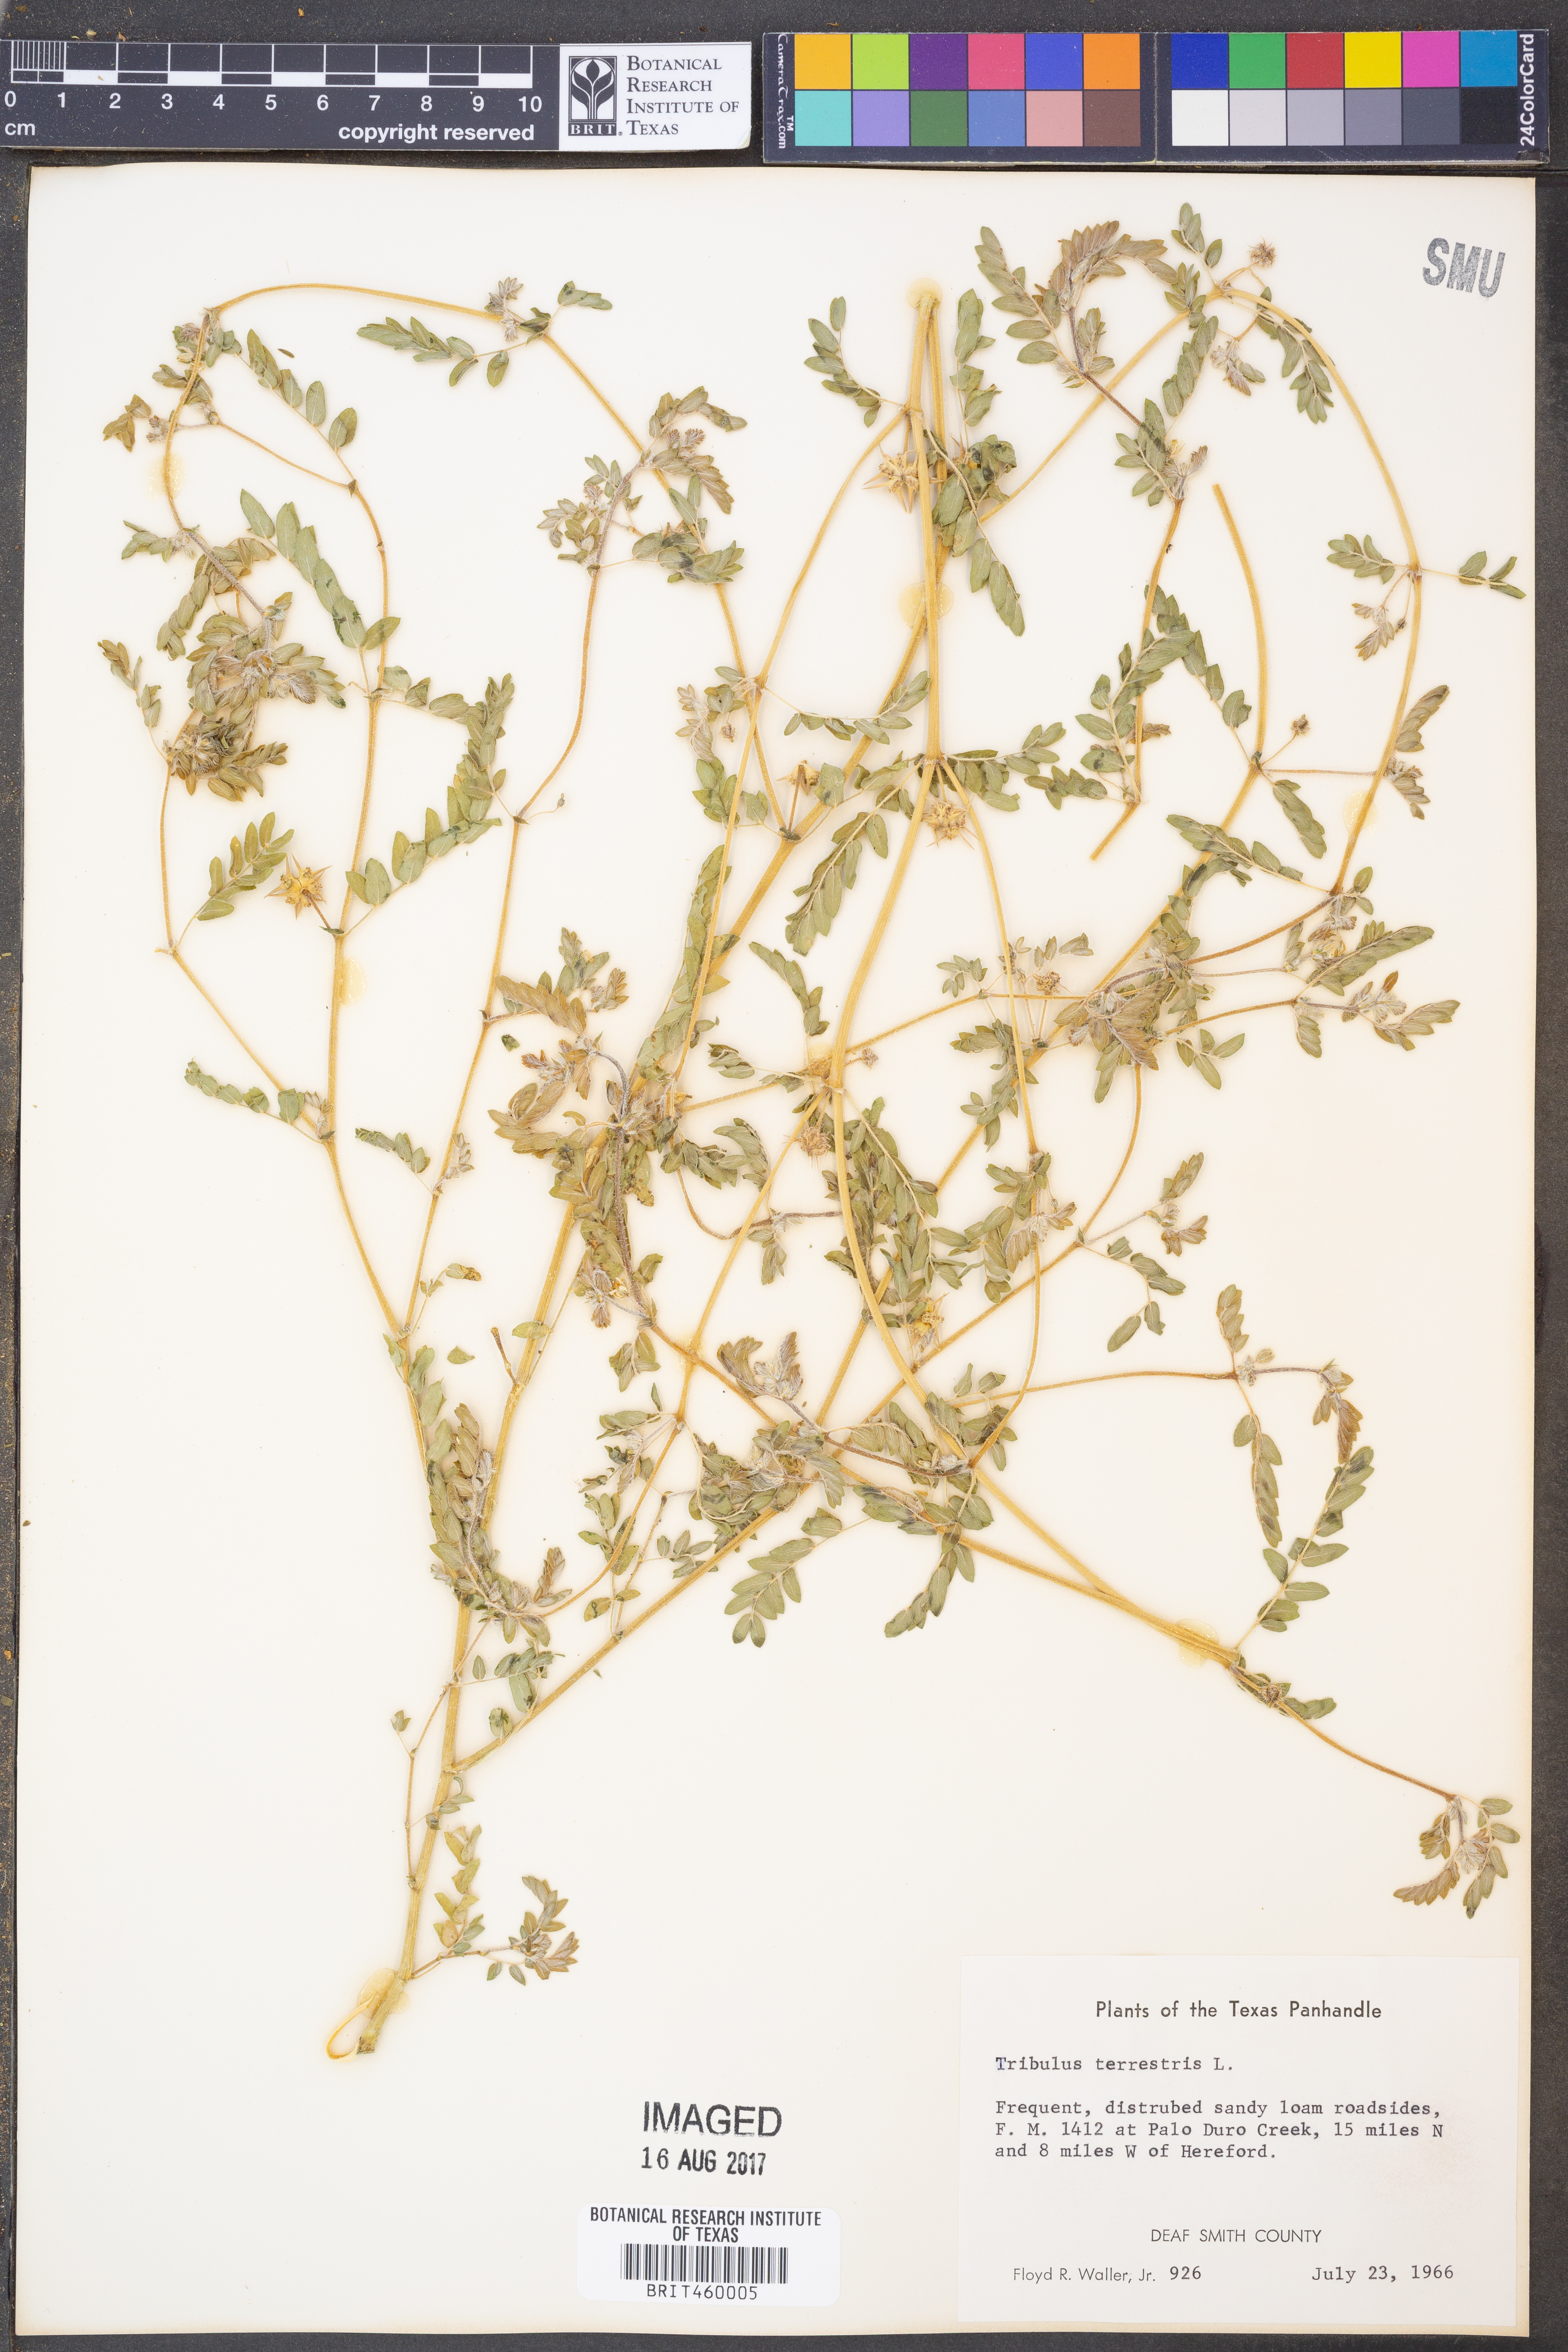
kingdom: Plantae
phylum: Tracheophyta
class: Magnoliopsida
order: Zygophyllales
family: Zygophyllaceae
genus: Tribulus
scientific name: Tribulus terrestris
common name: Puncturevine
